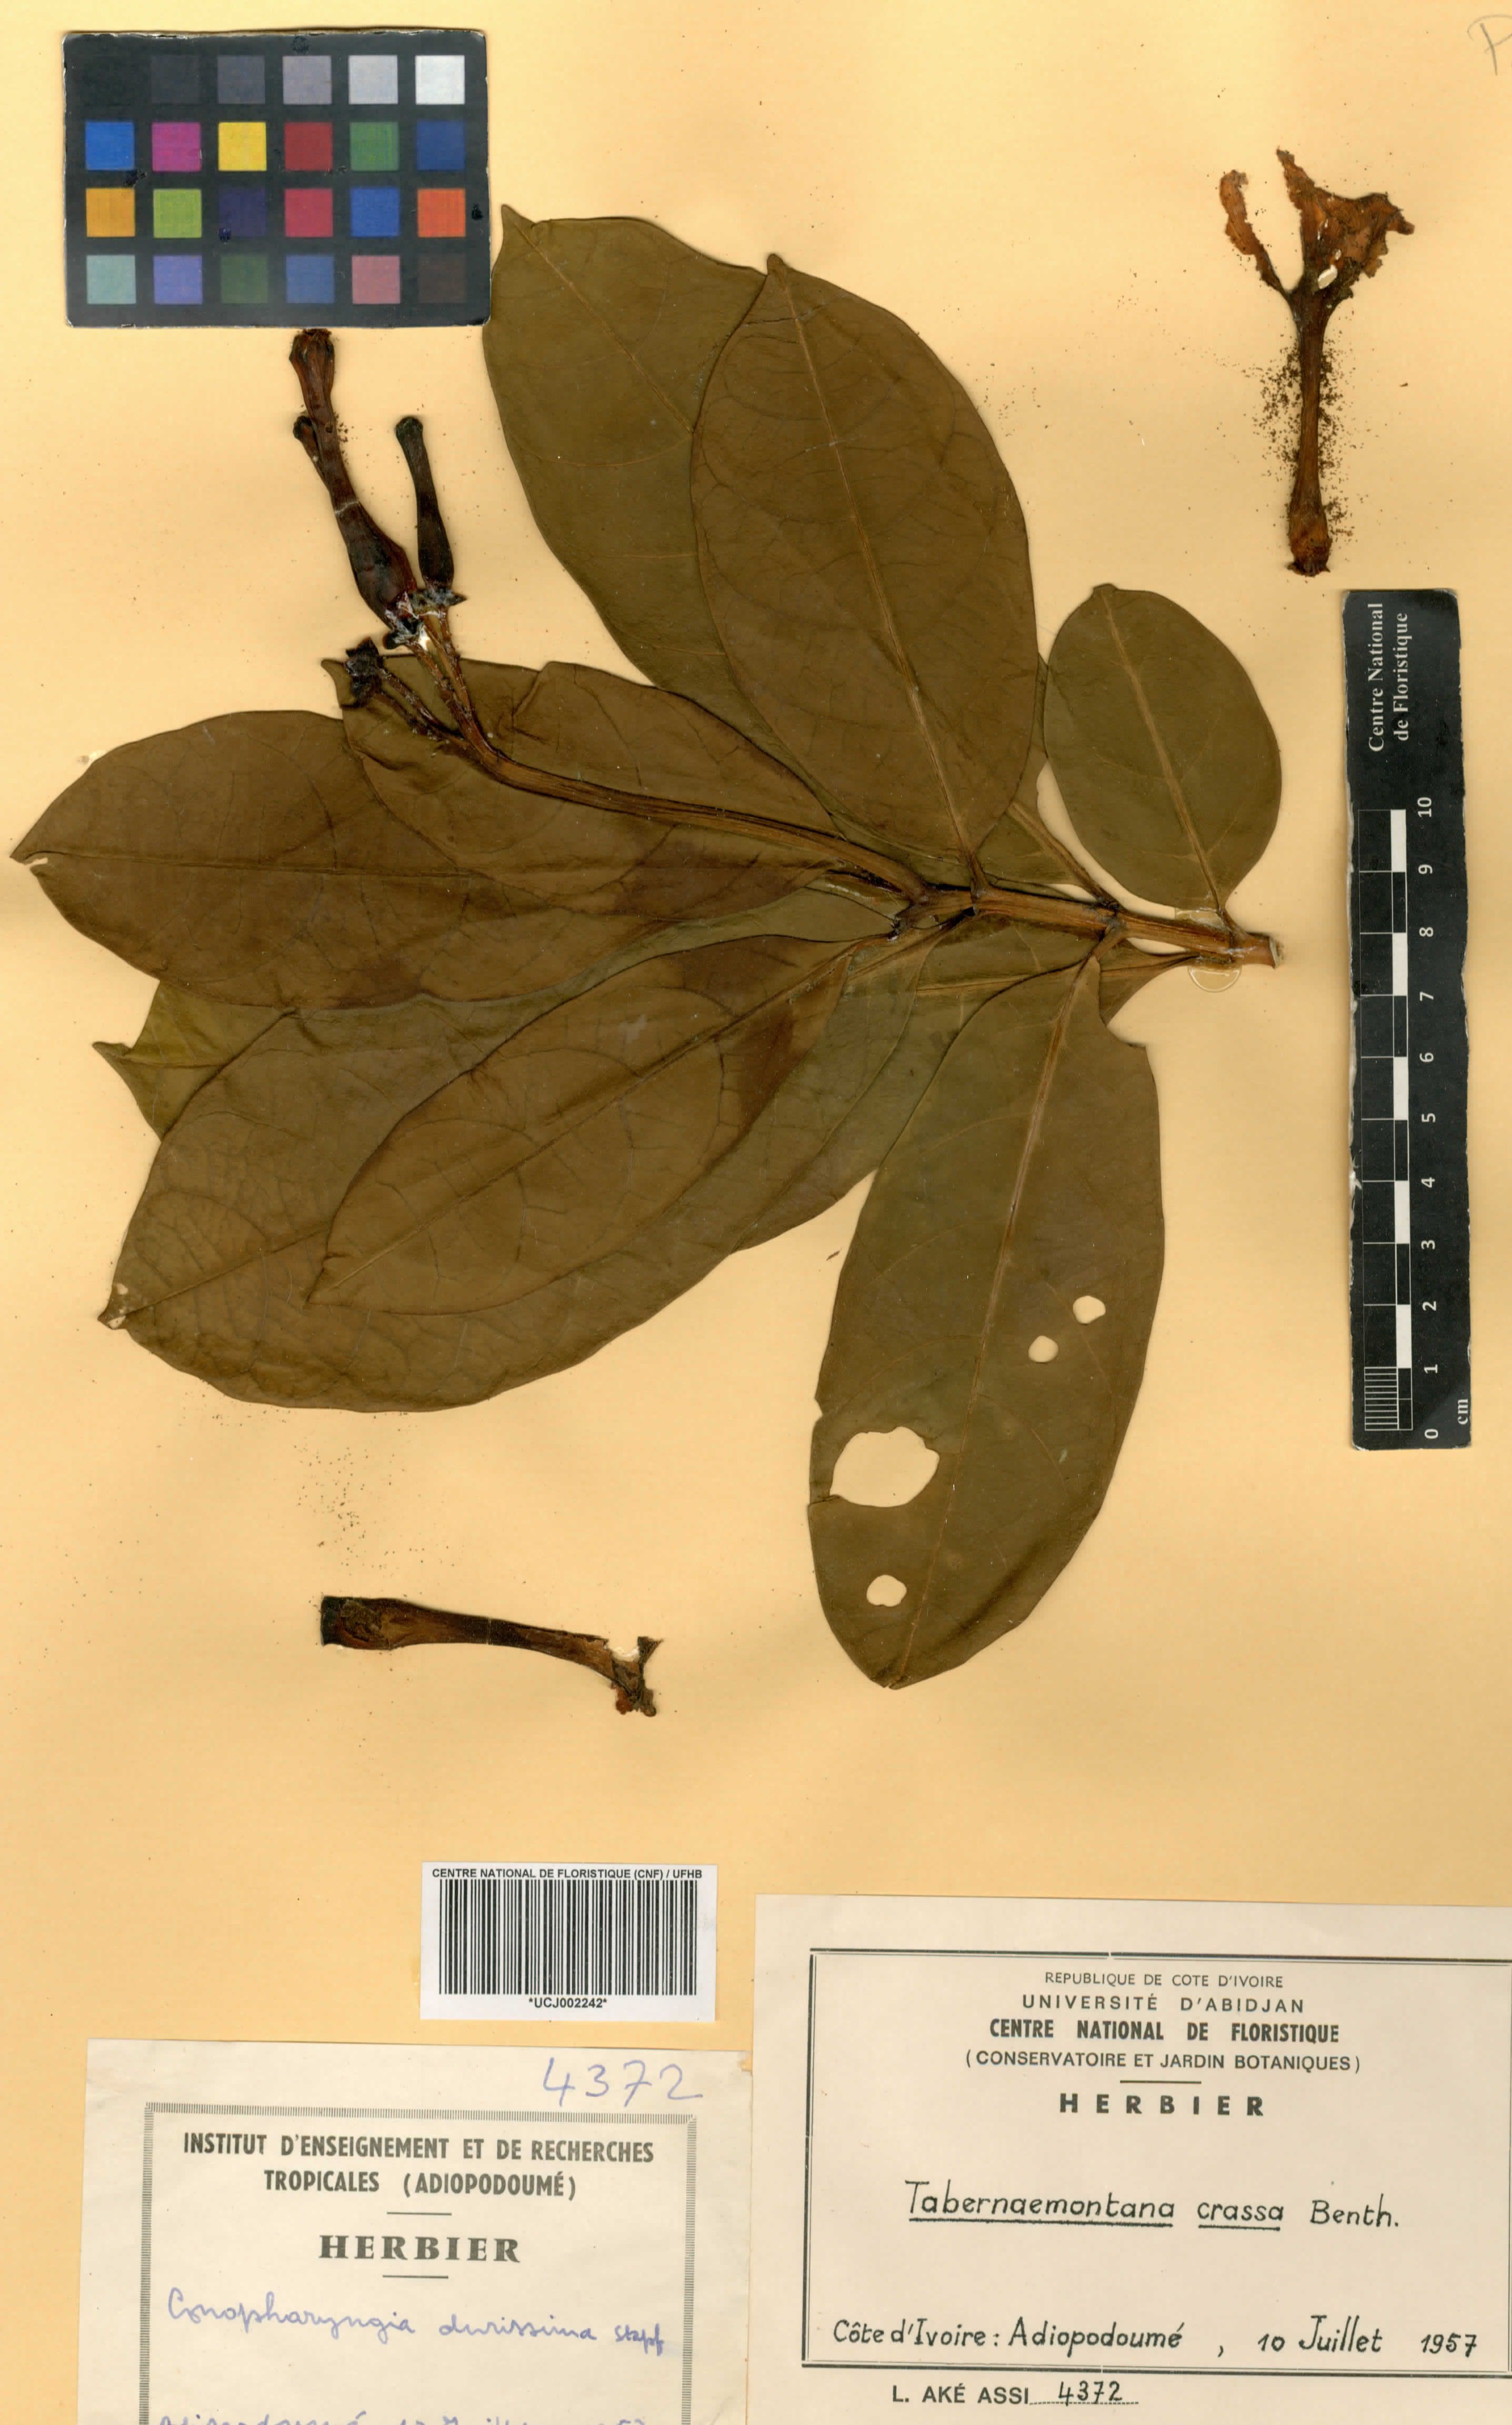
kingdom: Plantae
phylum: Tracheophyta
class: Magnoliopsida
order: Gentianales
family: Apocynaceae
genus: Tabernaemontana
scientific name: Tabernaemontana crassa
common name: Adam's-apple-flower
